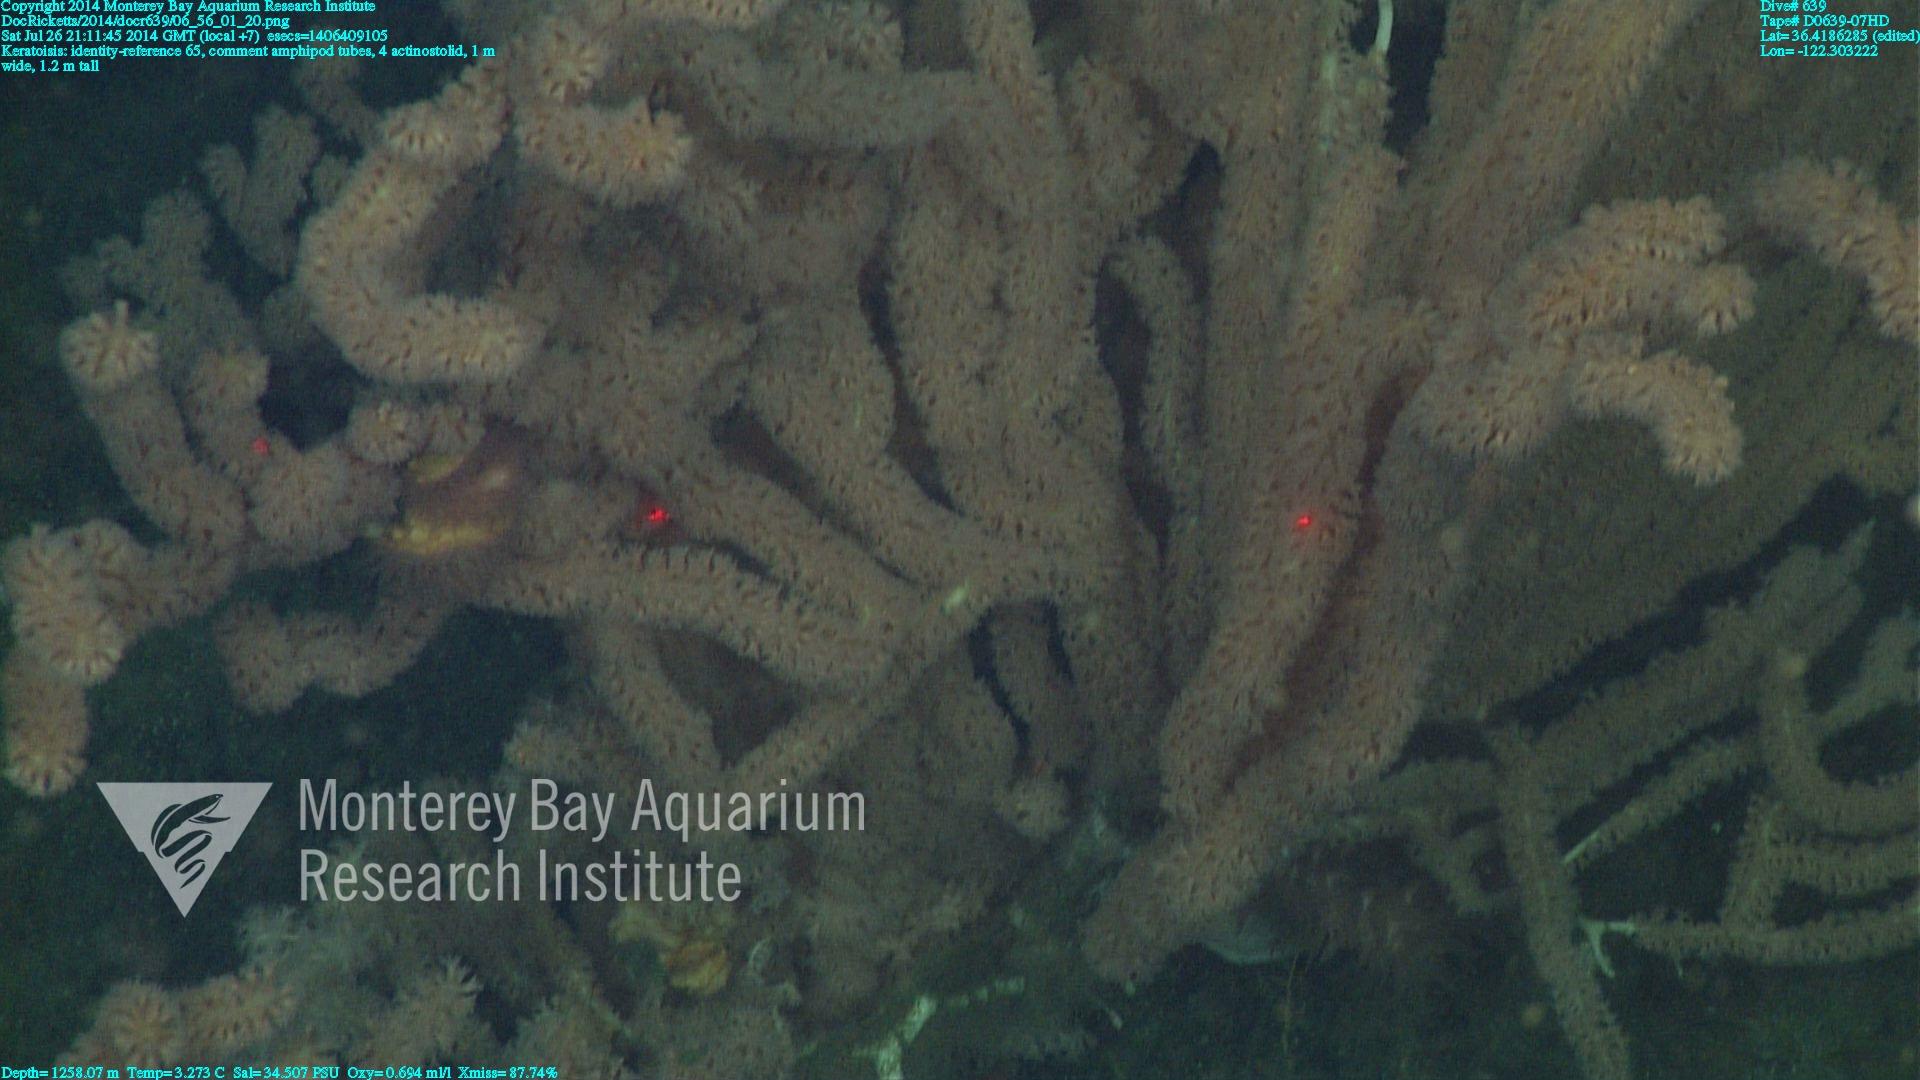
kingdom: Animalia
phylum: Cnidaria
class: Anthozoa
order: Scleralcyonacea
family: Keratoisididae
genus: Keratoisis
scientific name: Keratoisis
